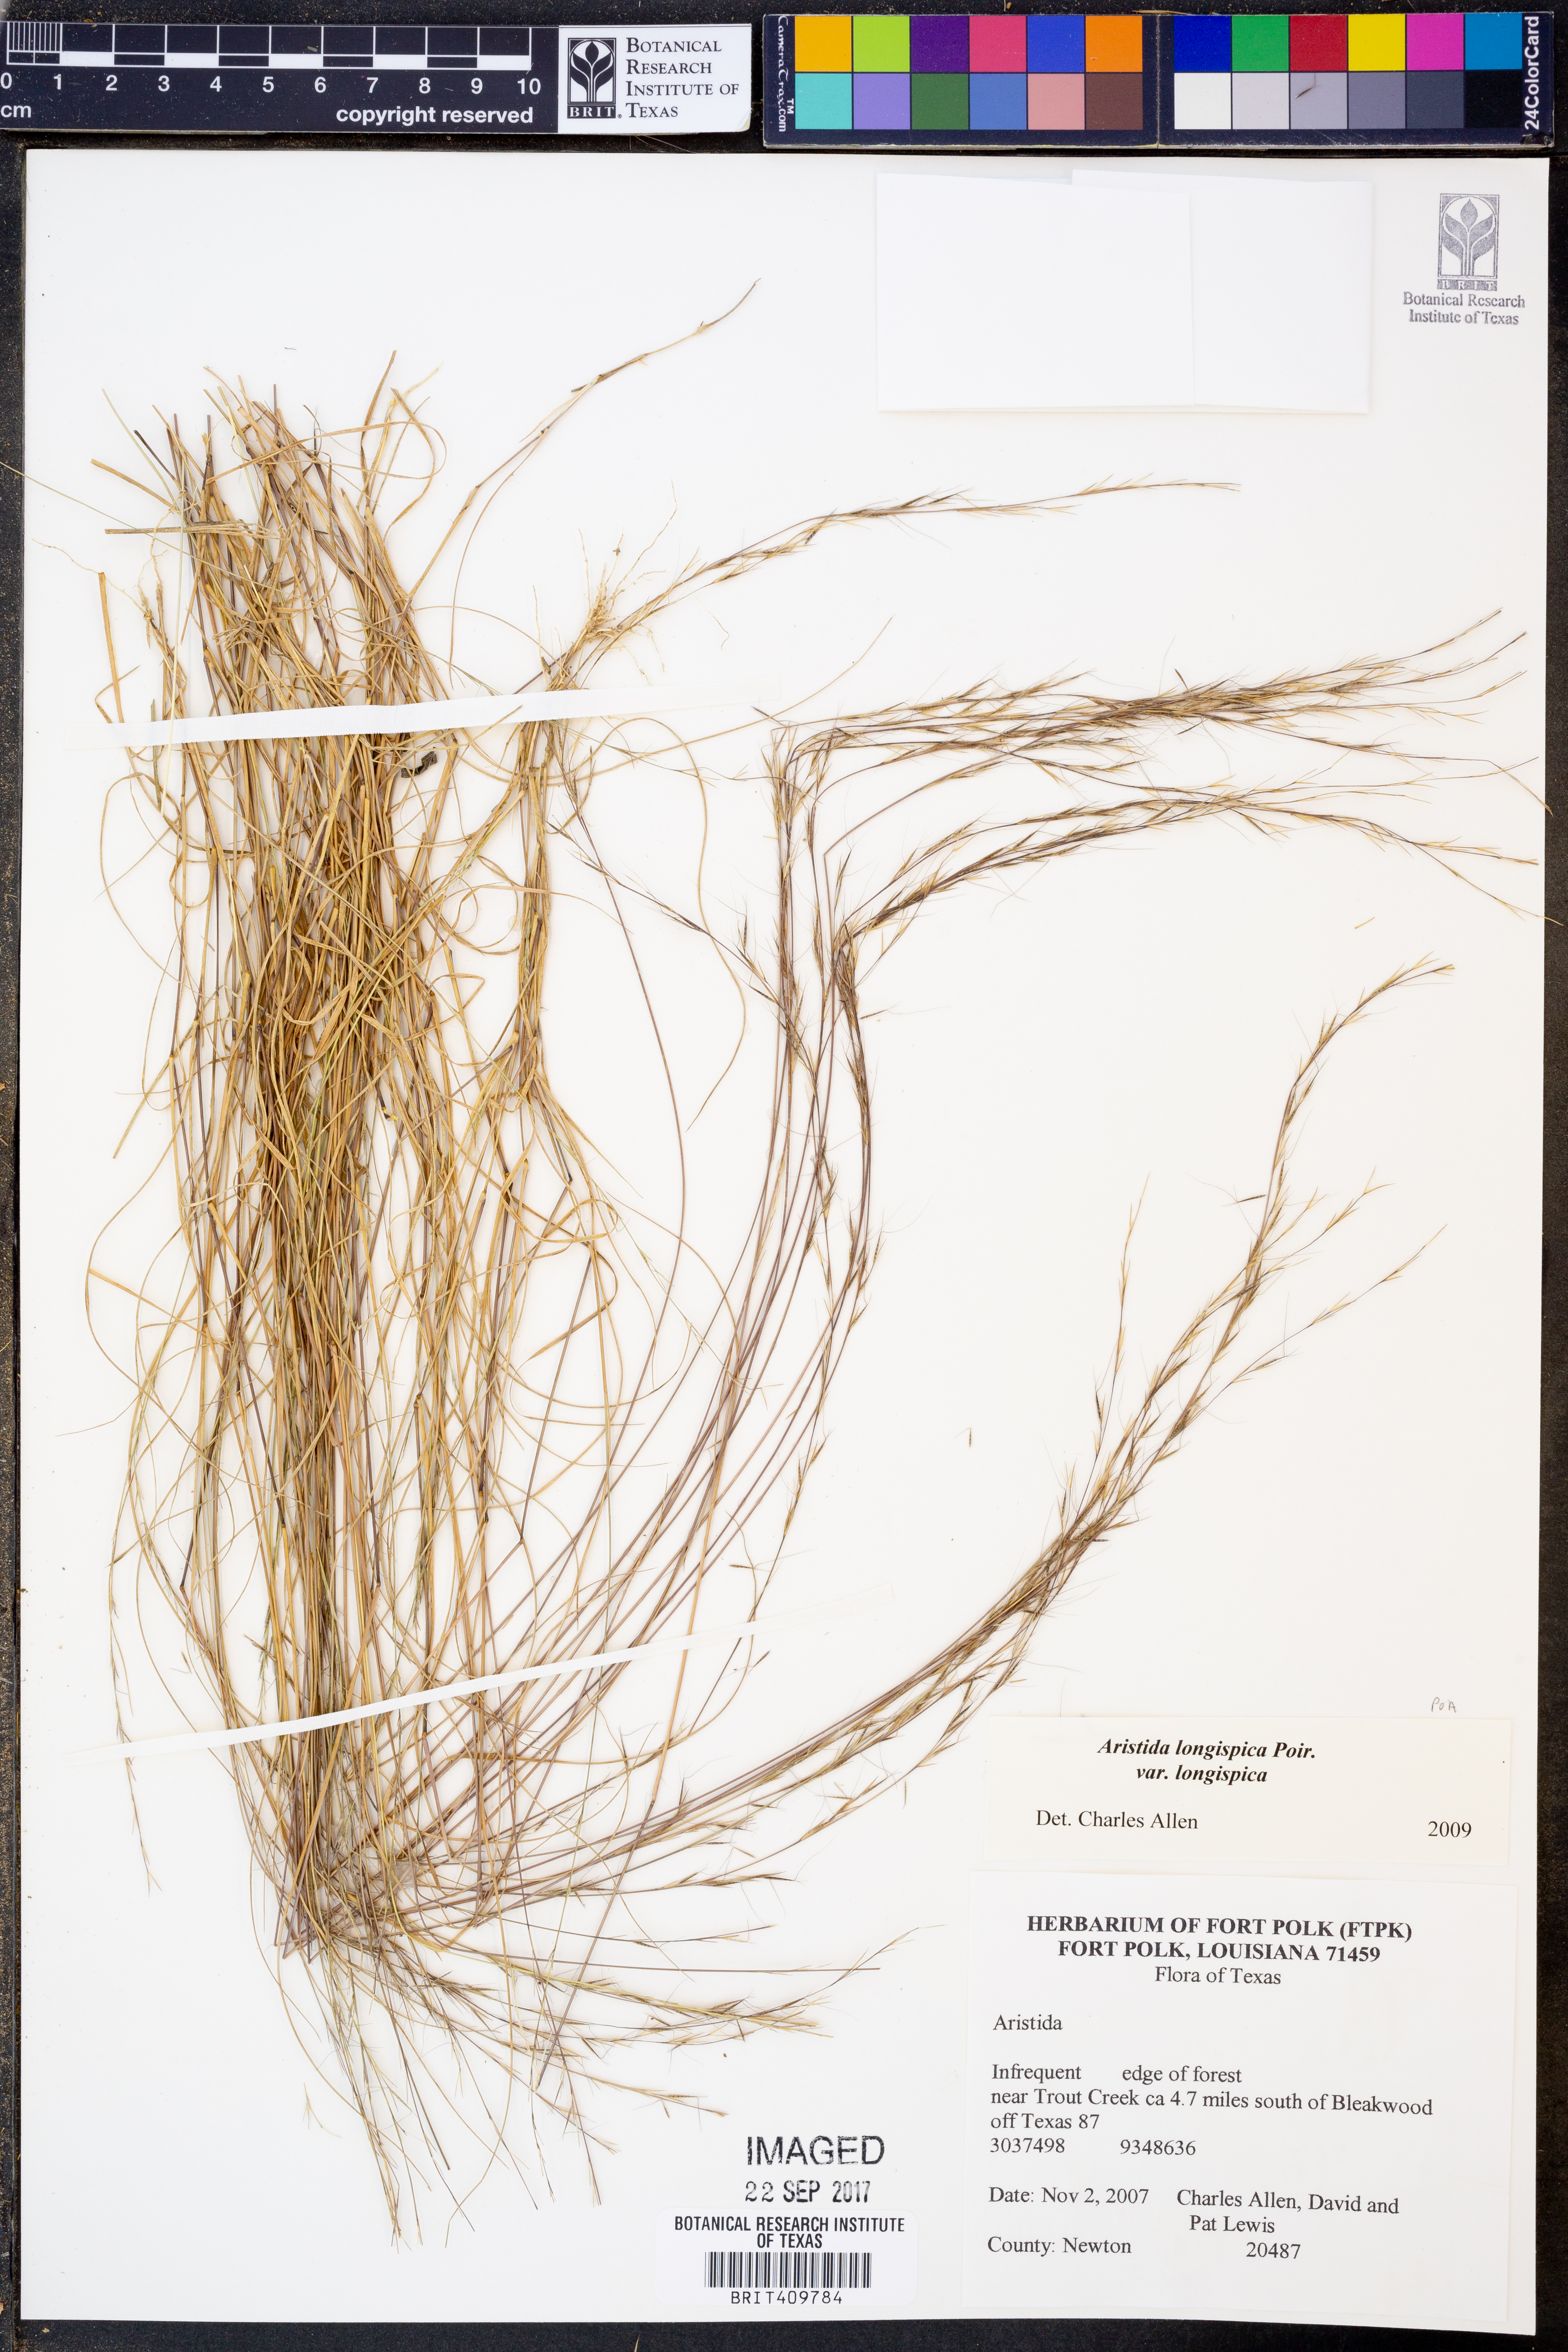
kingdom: Plantae
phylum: Tracheophyta
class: Liliopsida
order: Poales
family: Poaceae
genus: Aristida
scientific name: Aristida longespica
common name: Long-spiked triple-awned grass
